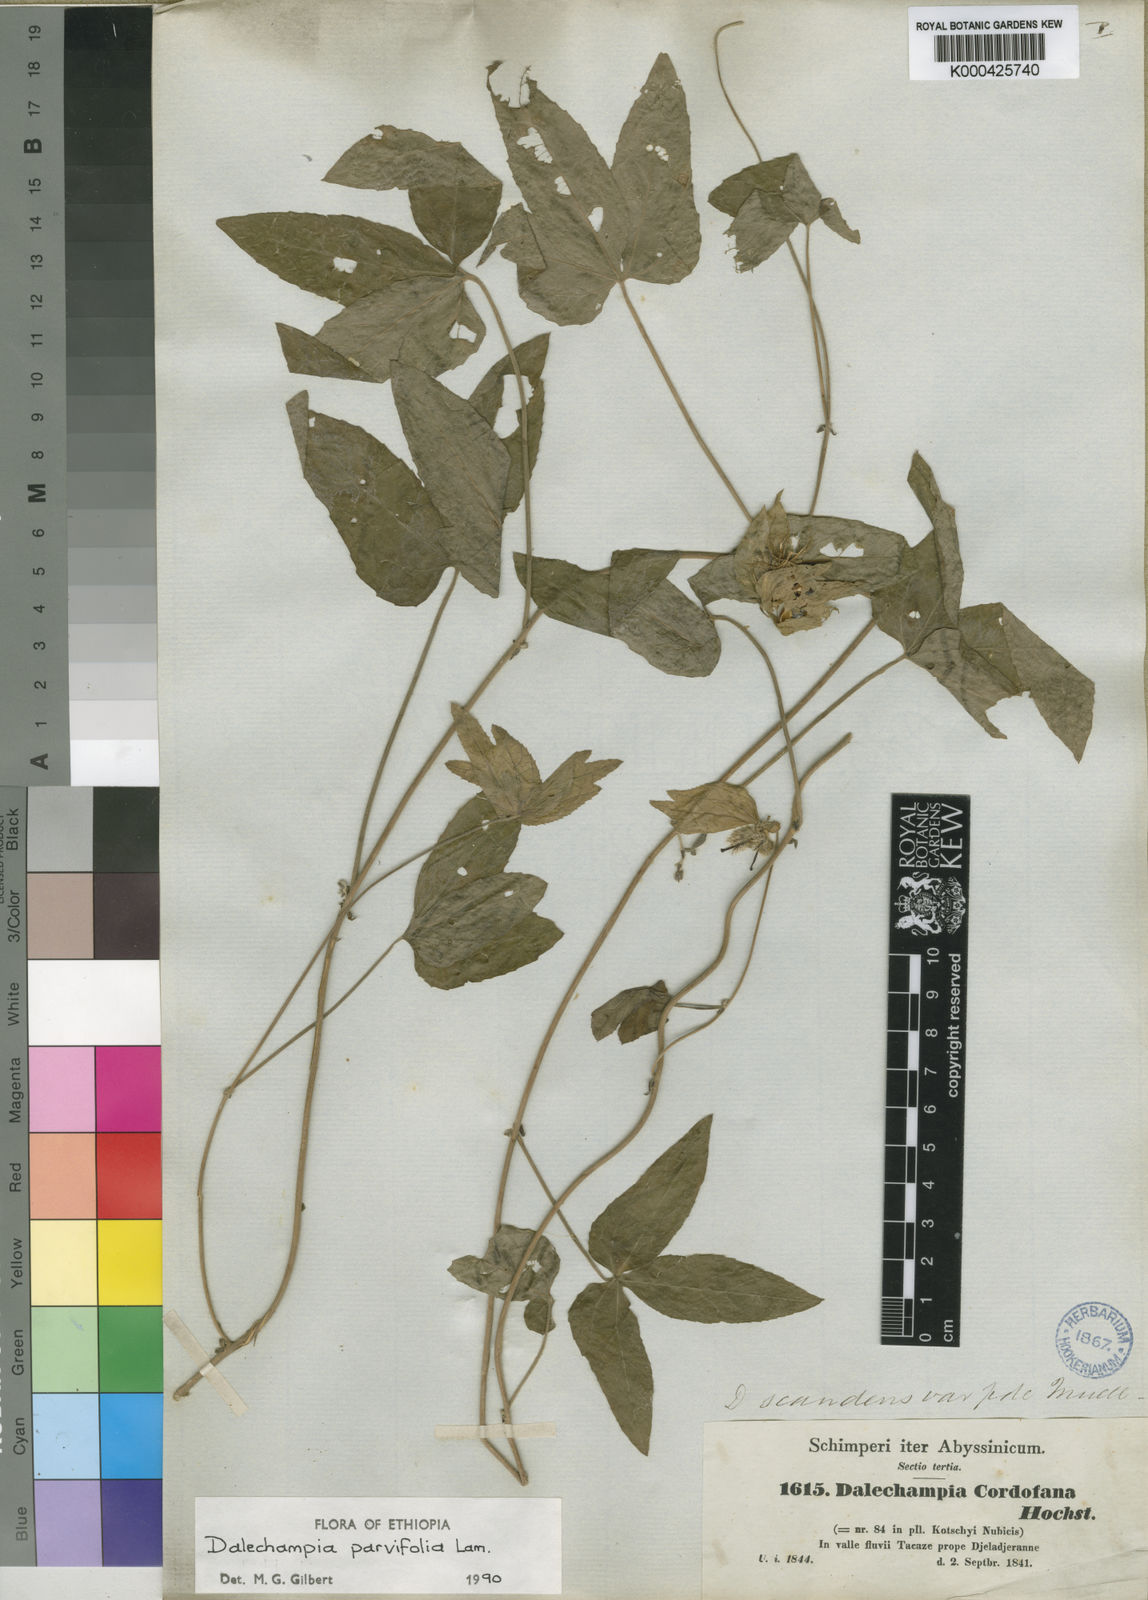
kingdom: Plantae
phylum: Tracheophyta
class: Magnoliopsida
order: Malpighiales
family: Euphorbiaceae
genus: Dalechampia
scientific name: Dalechampia scandens
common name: Spurgecreeper
